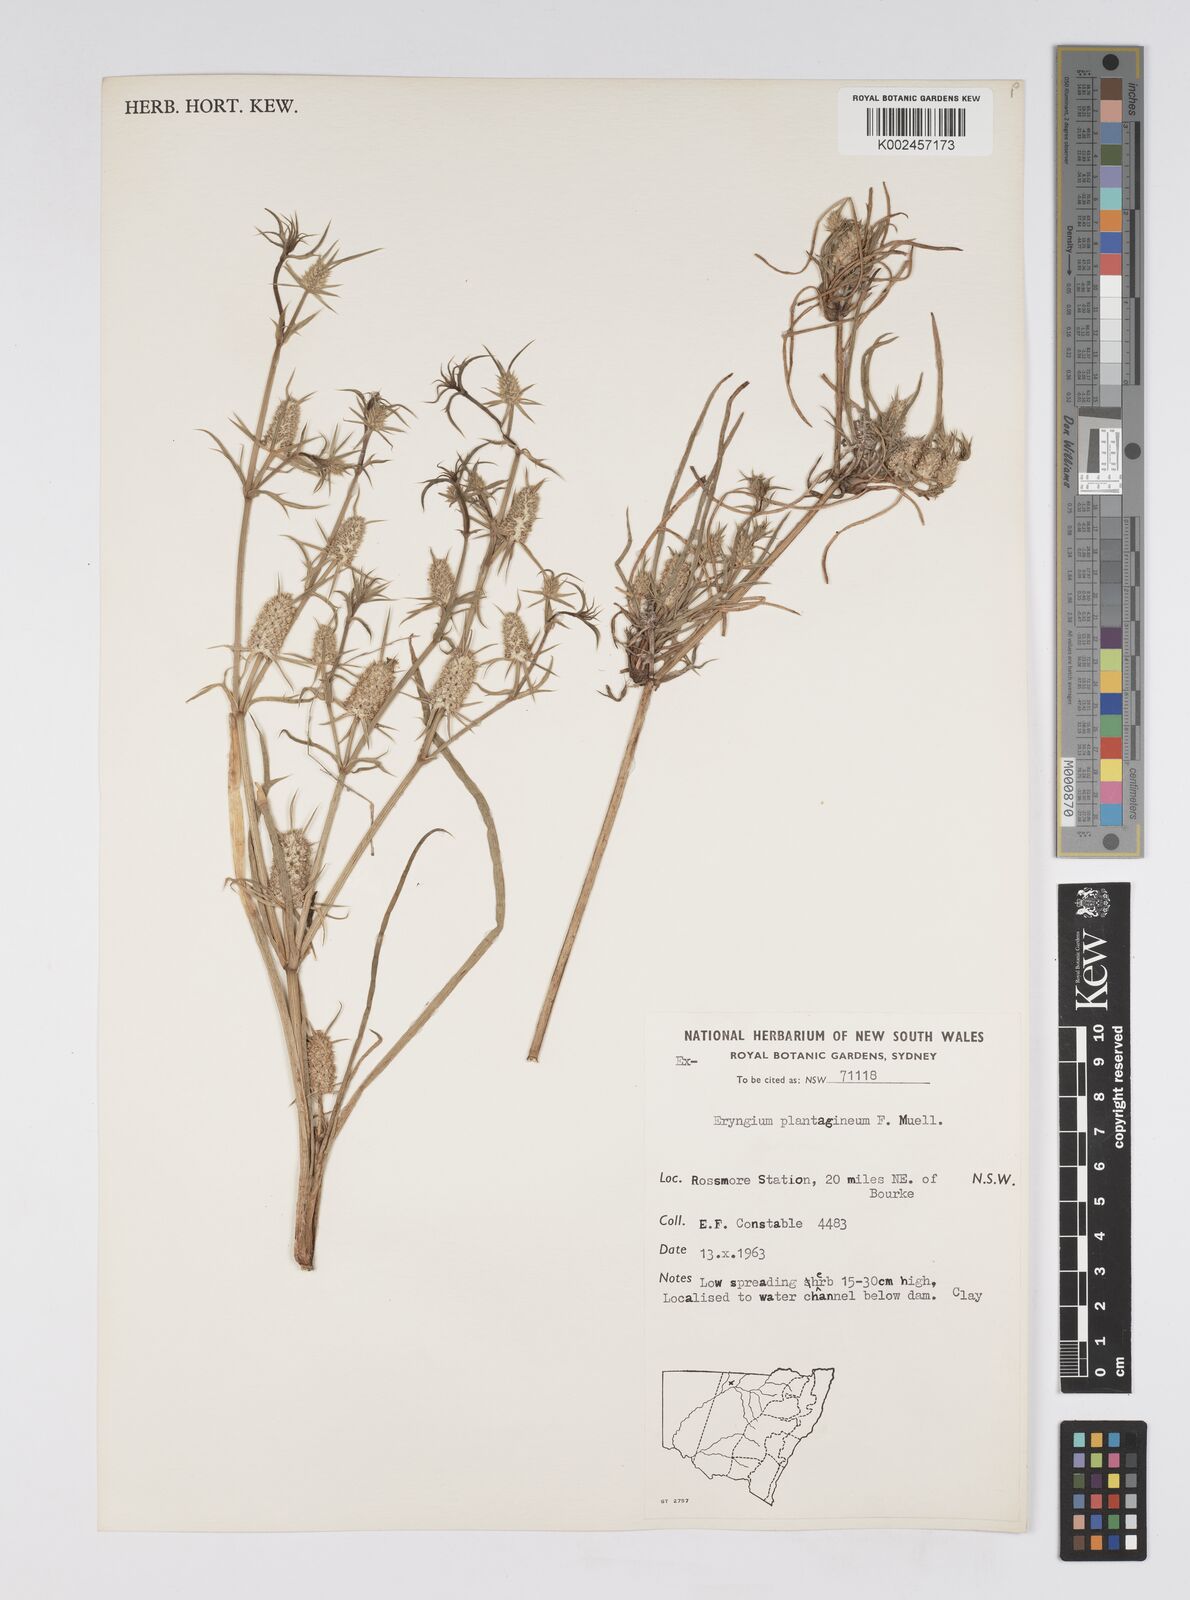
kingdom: Plantae
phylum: Tracheophyta
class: Magnoliopsida
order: Apiales
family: Apiaceae
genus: Eryngium
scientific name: Eryngium plantagineum
